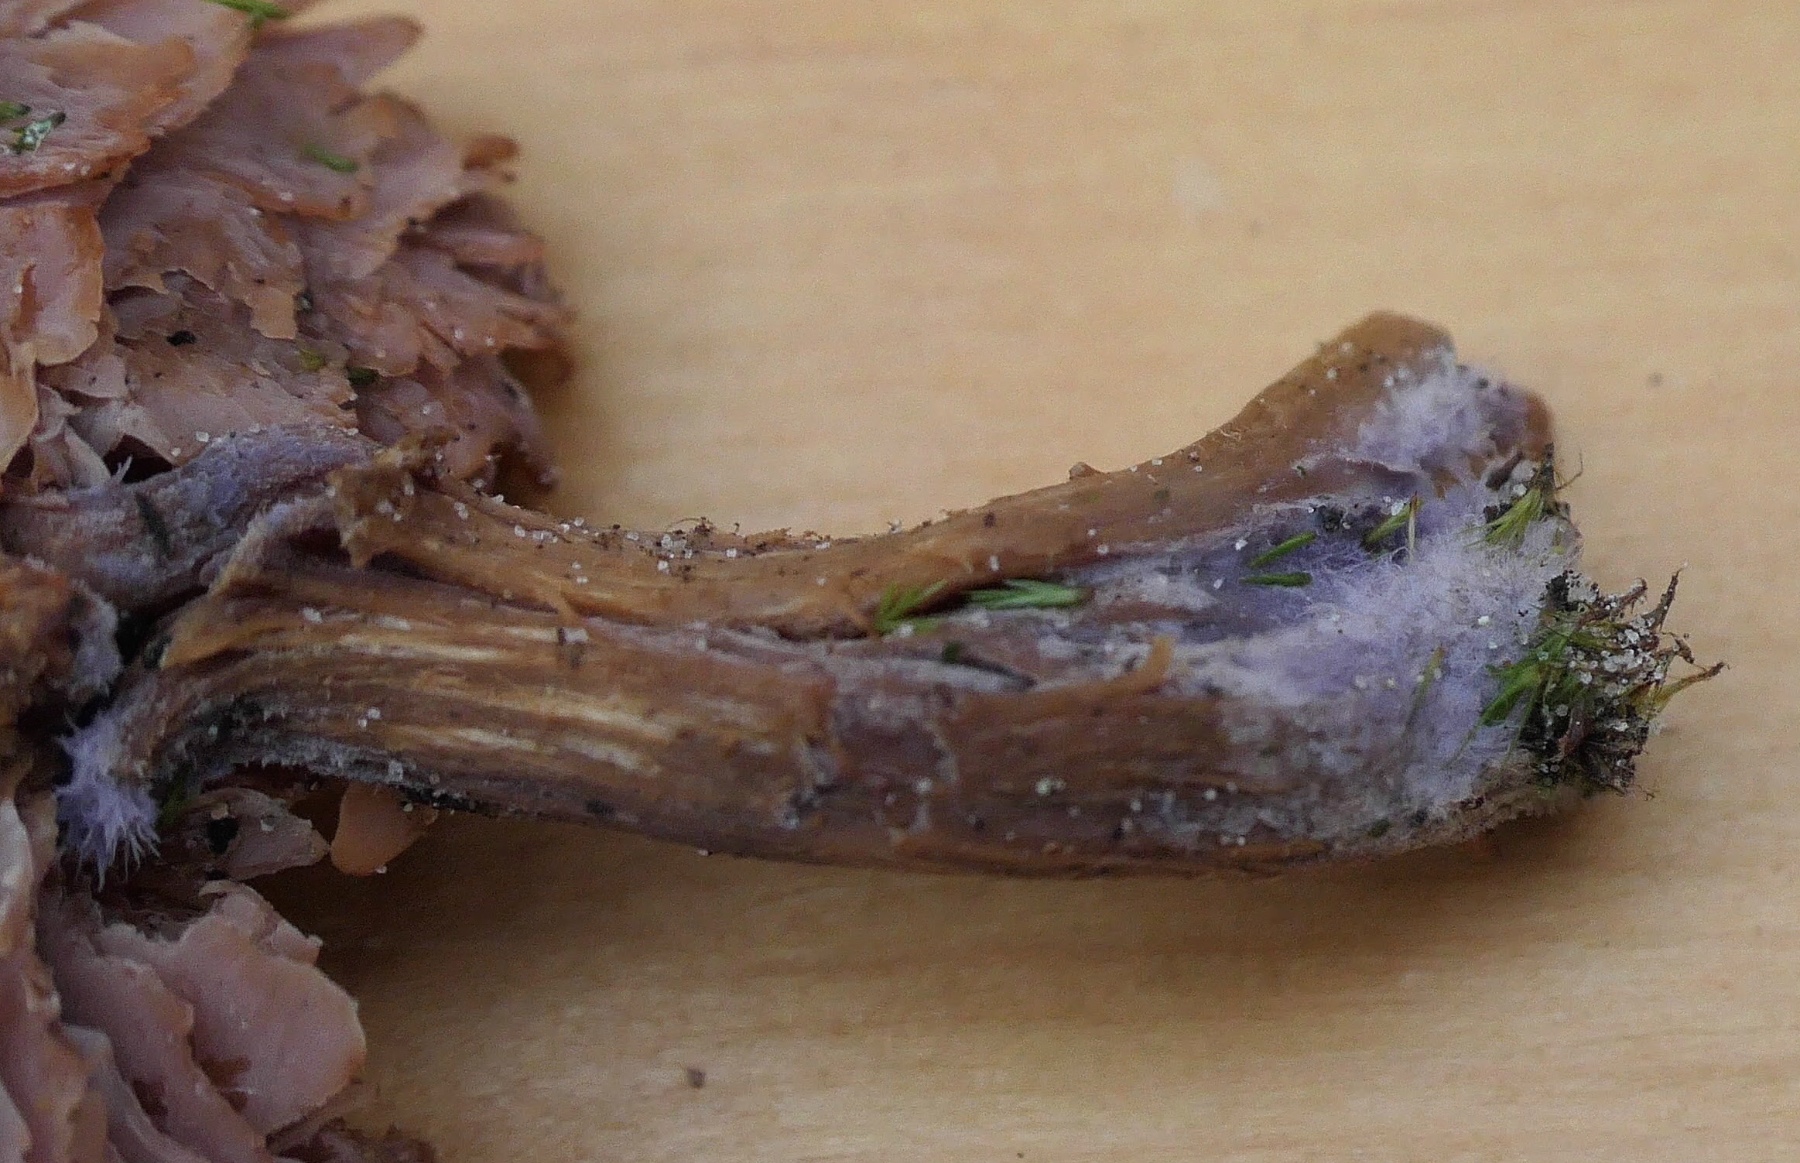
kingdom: Fungi
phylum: Basidiomycota
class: Agaricomycetes
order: Agaricales
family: Hydnangiaceae
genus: Laccaria
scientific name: Laccaria bicolor
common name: tvefarvet ametysthat
